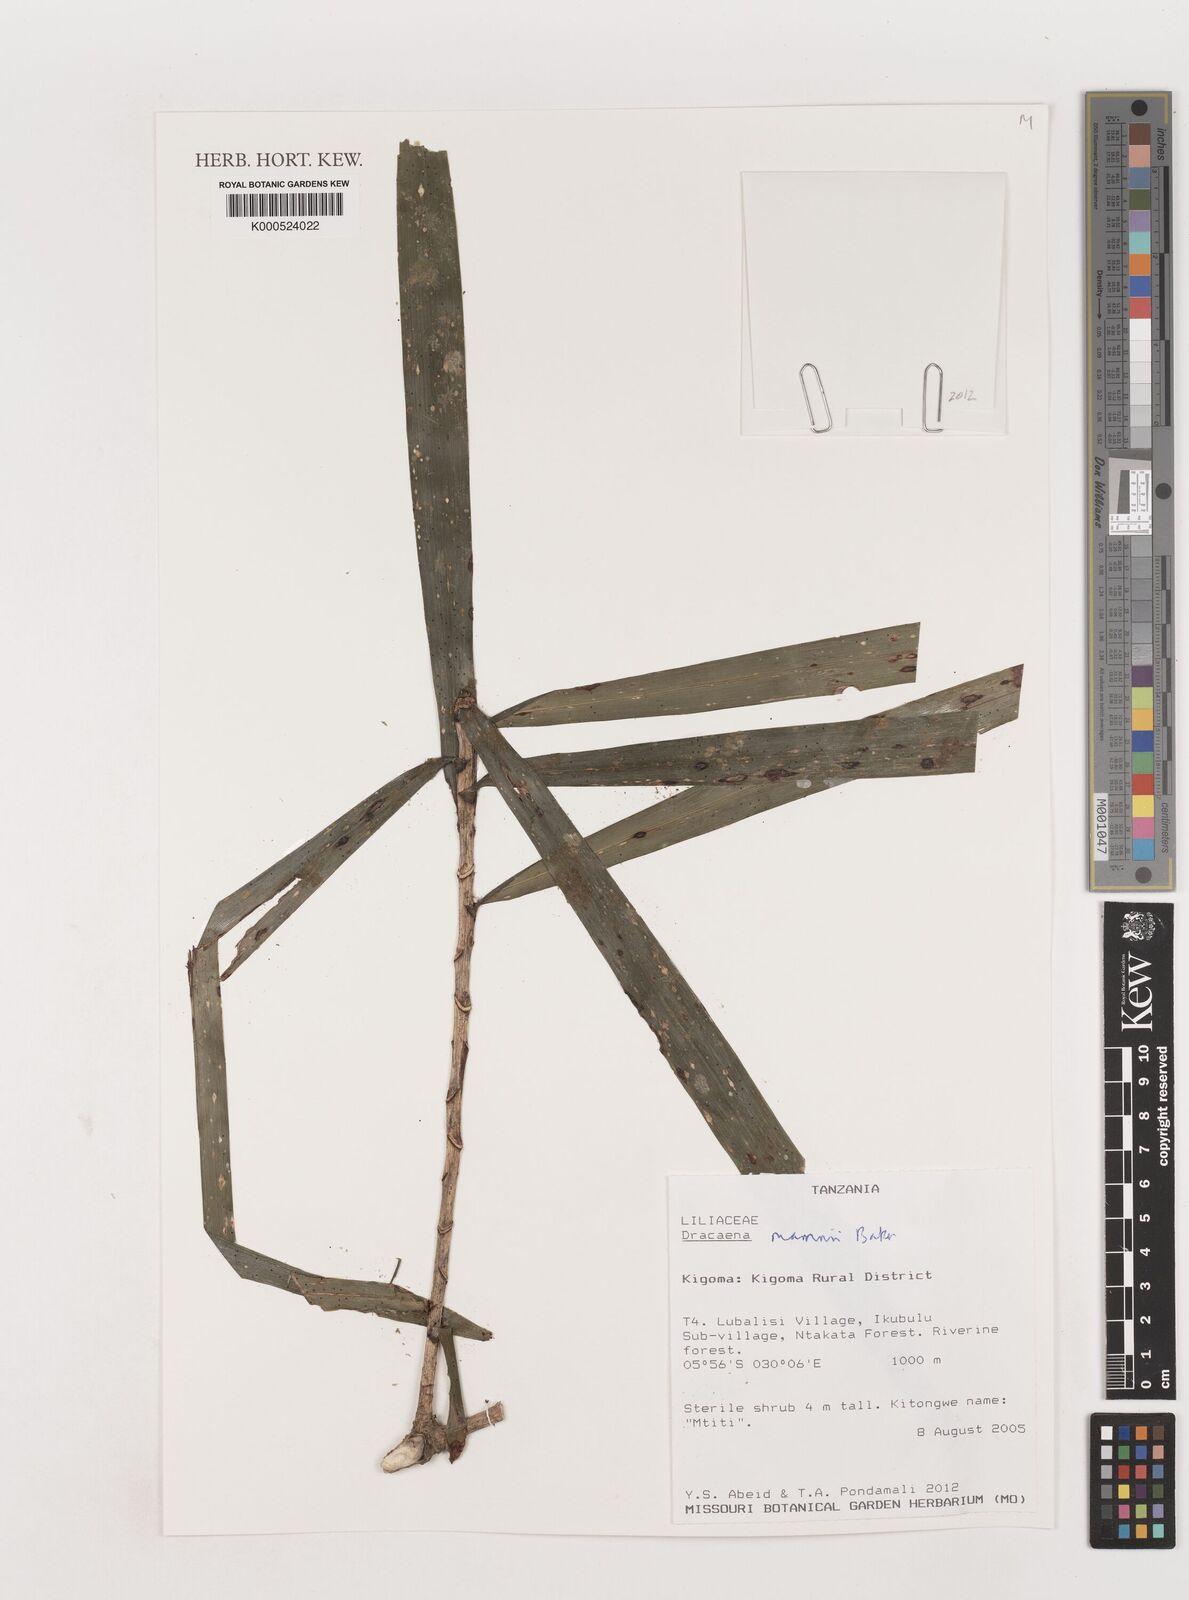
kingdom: Plantae
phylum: Tracheophyta
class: Liliopsida
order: Asparagales
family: Asparagaceae
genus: Dracaena
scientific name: Dracaena mannii
